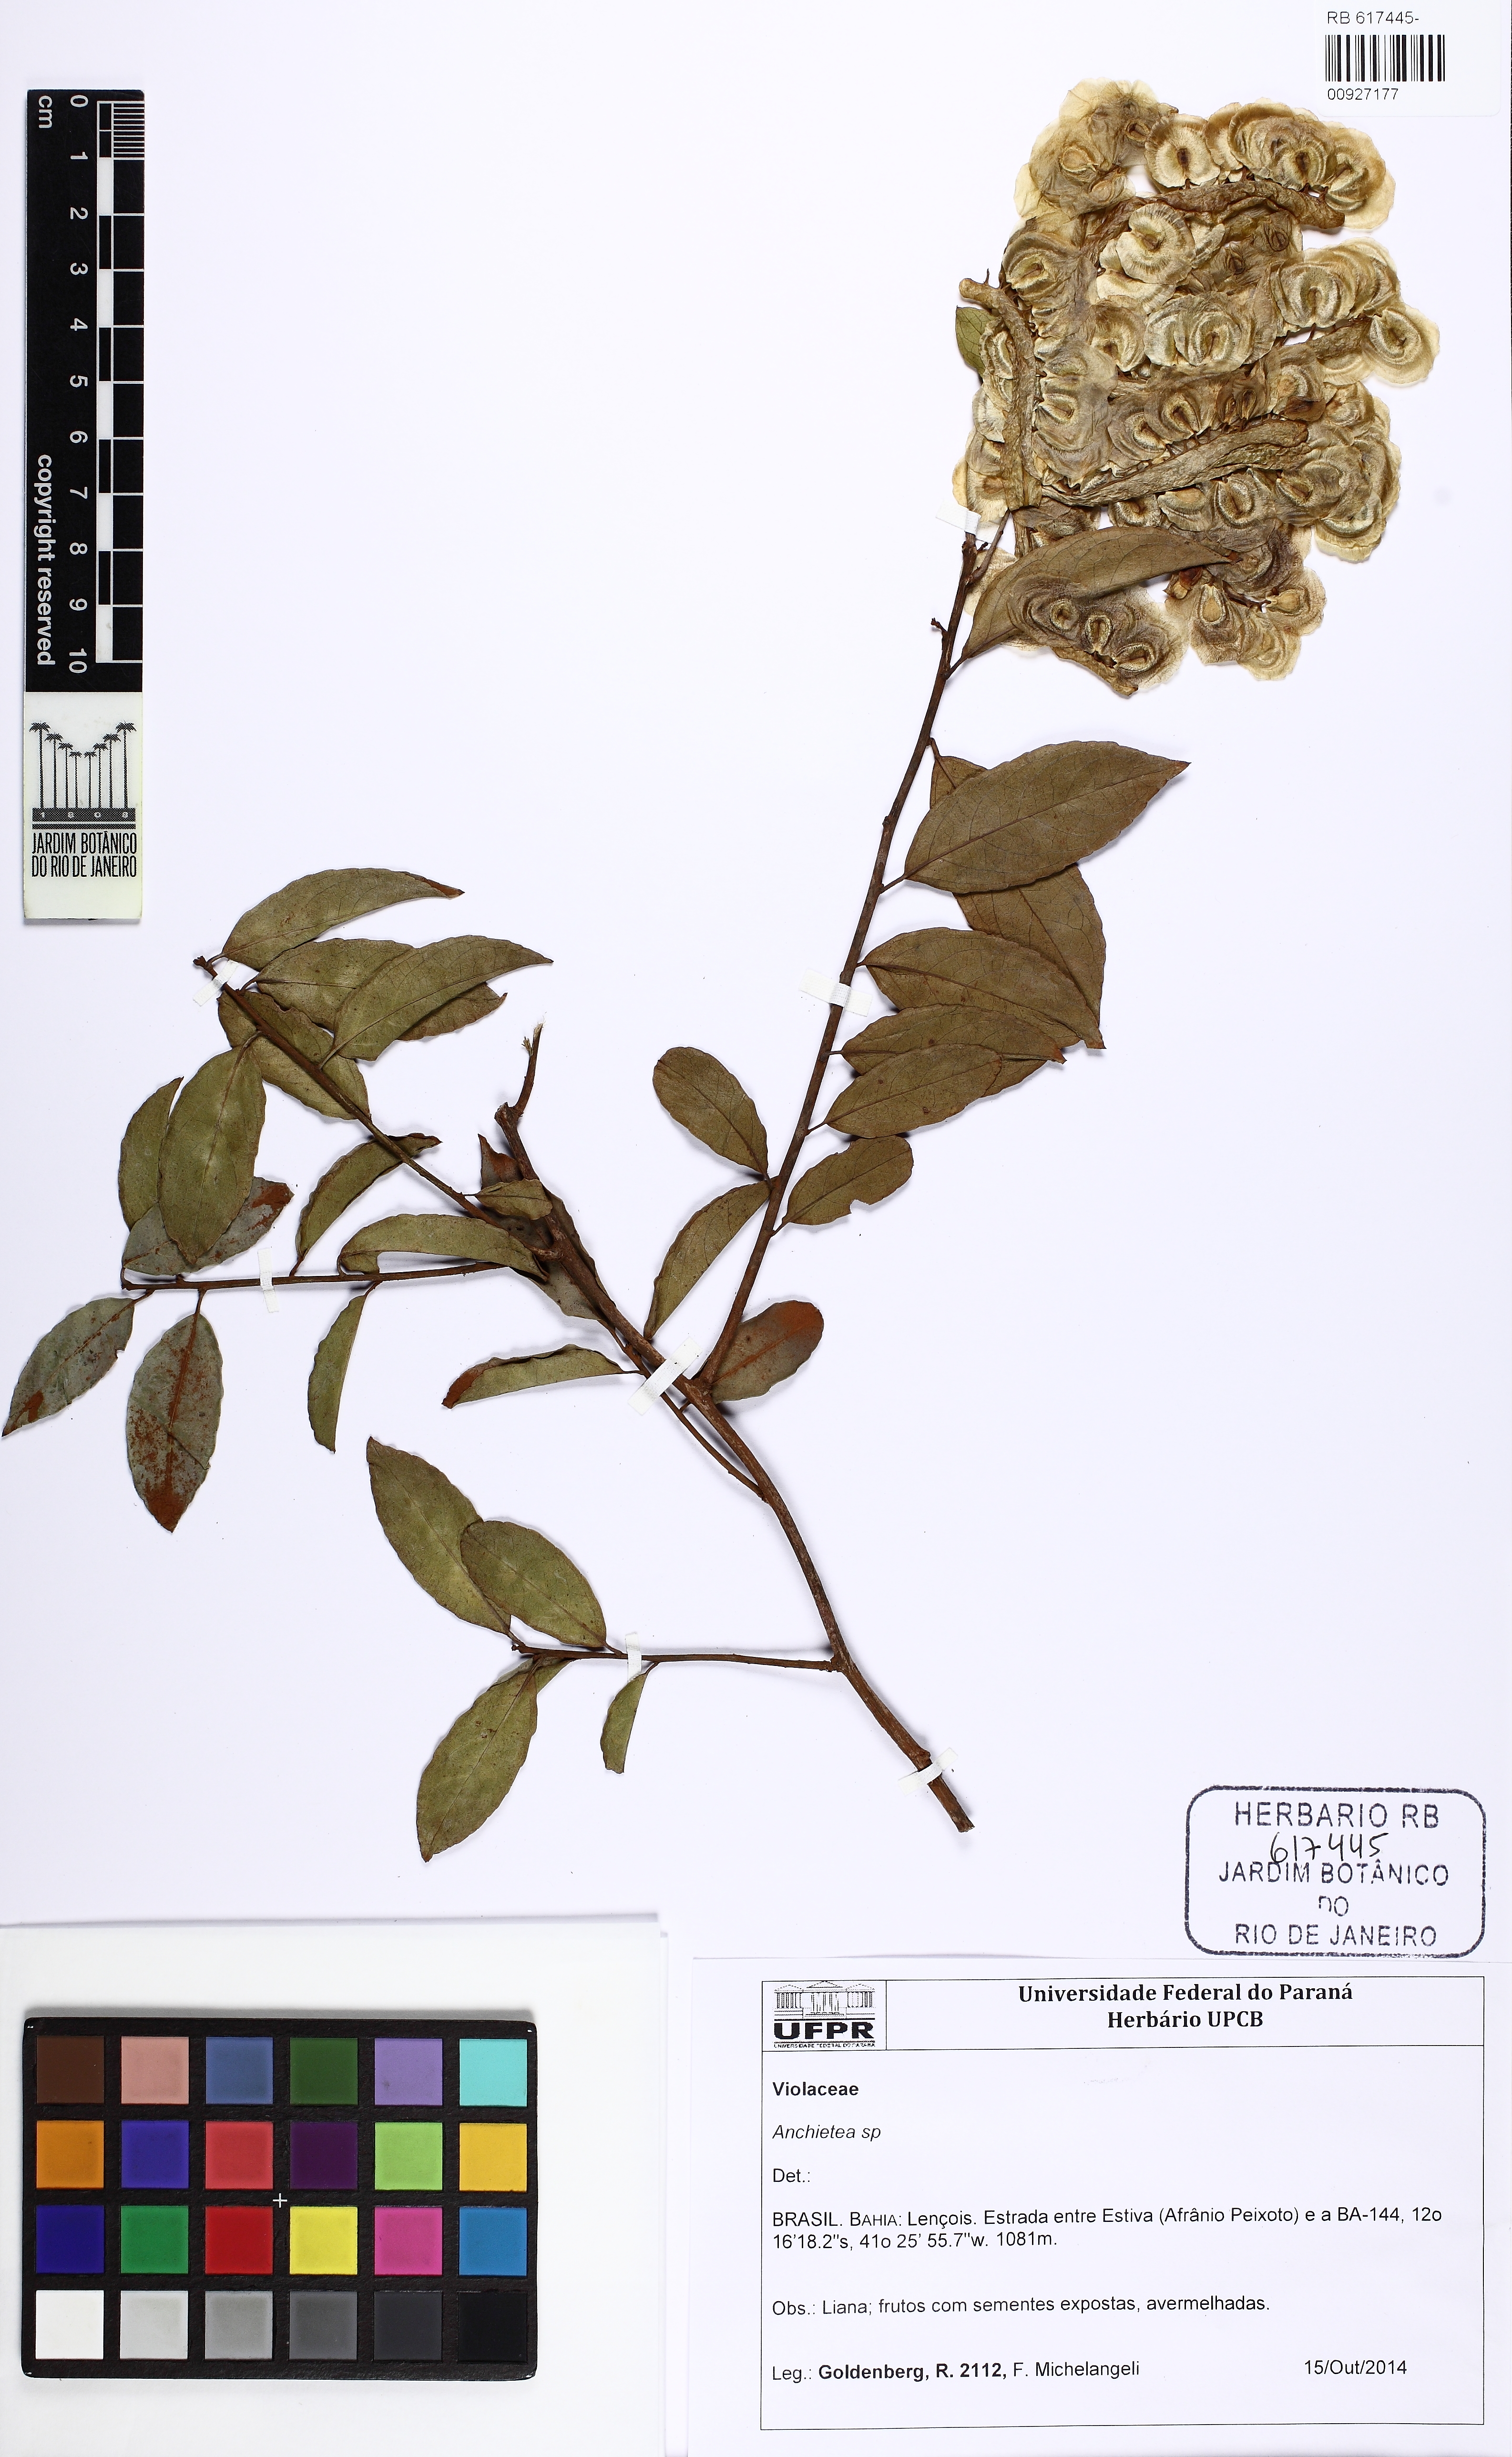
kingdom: Plantae
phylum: Tracheophyta
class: Magnoliopsida
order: Malpighiales
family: Violaceae
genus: Anchietea
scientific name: Anchietea pyrifolia
